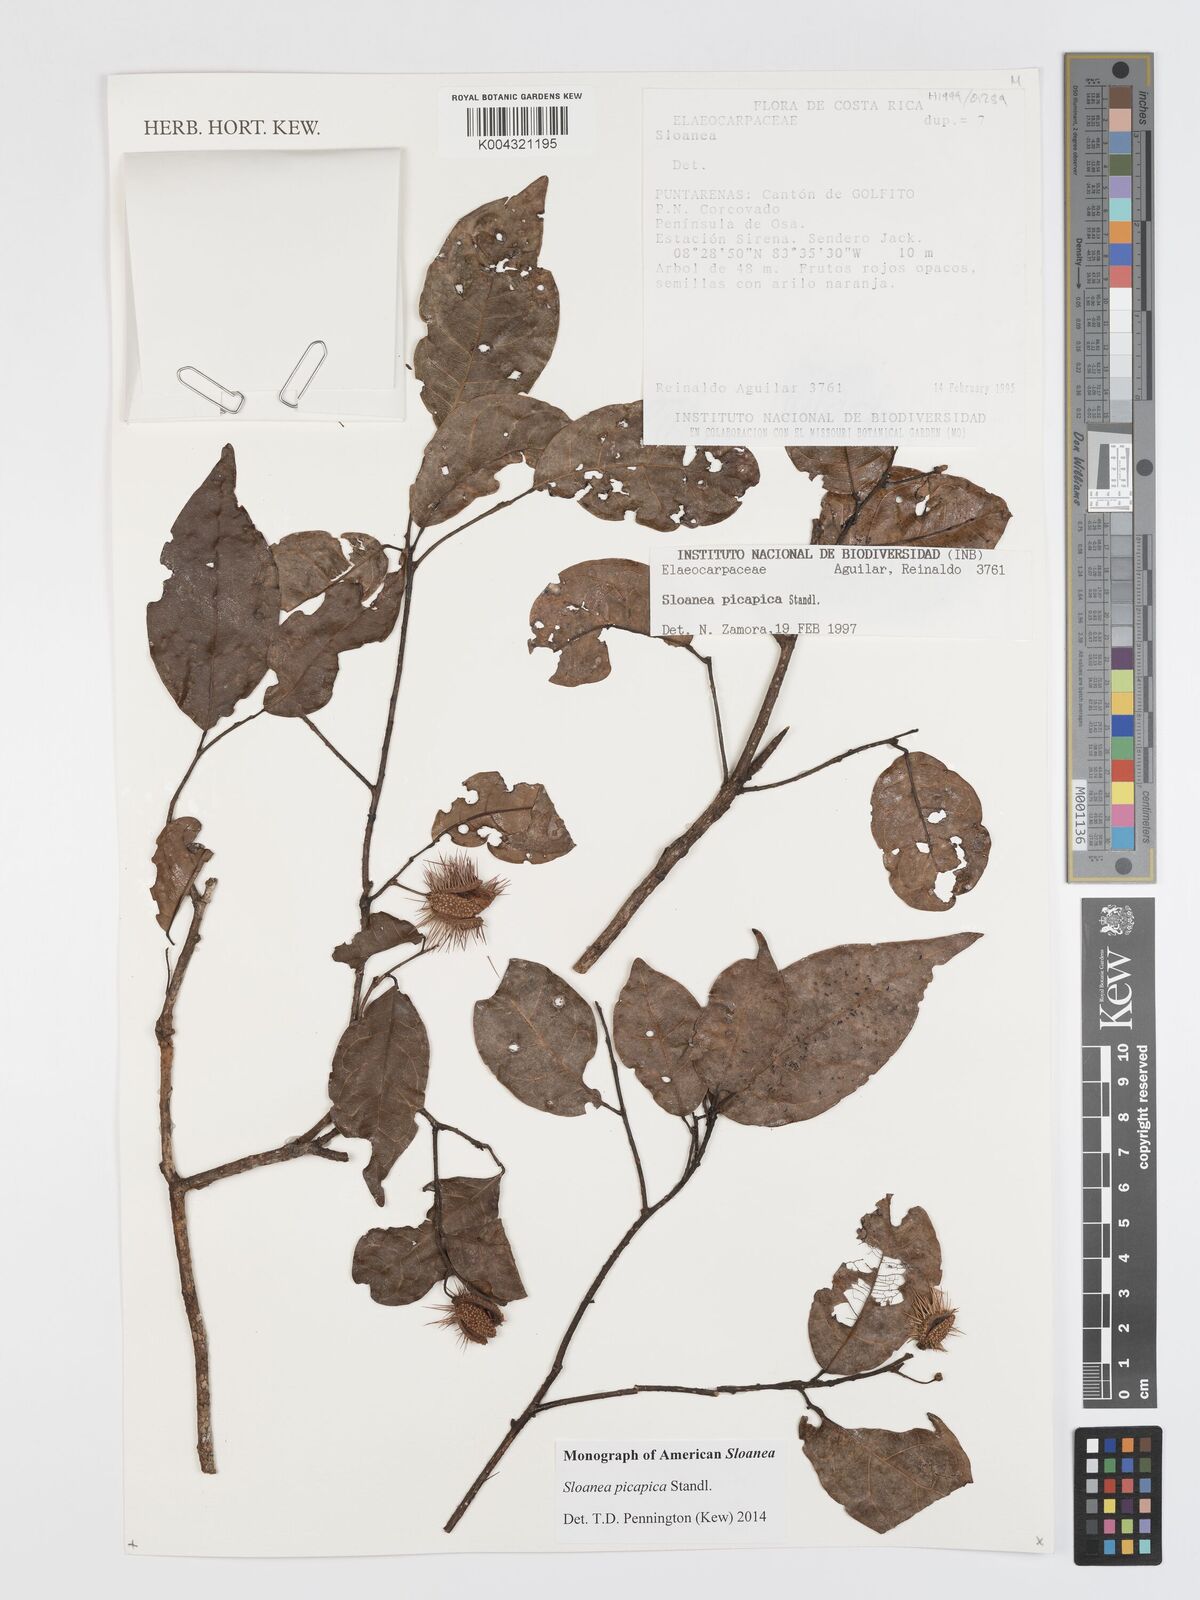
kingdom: Plantae
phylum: Tracheophyta
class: Magnoliopsida
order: Oxalidales
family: Elaeocarpaceae
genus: Sloanea
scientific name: Sloanea picapica
